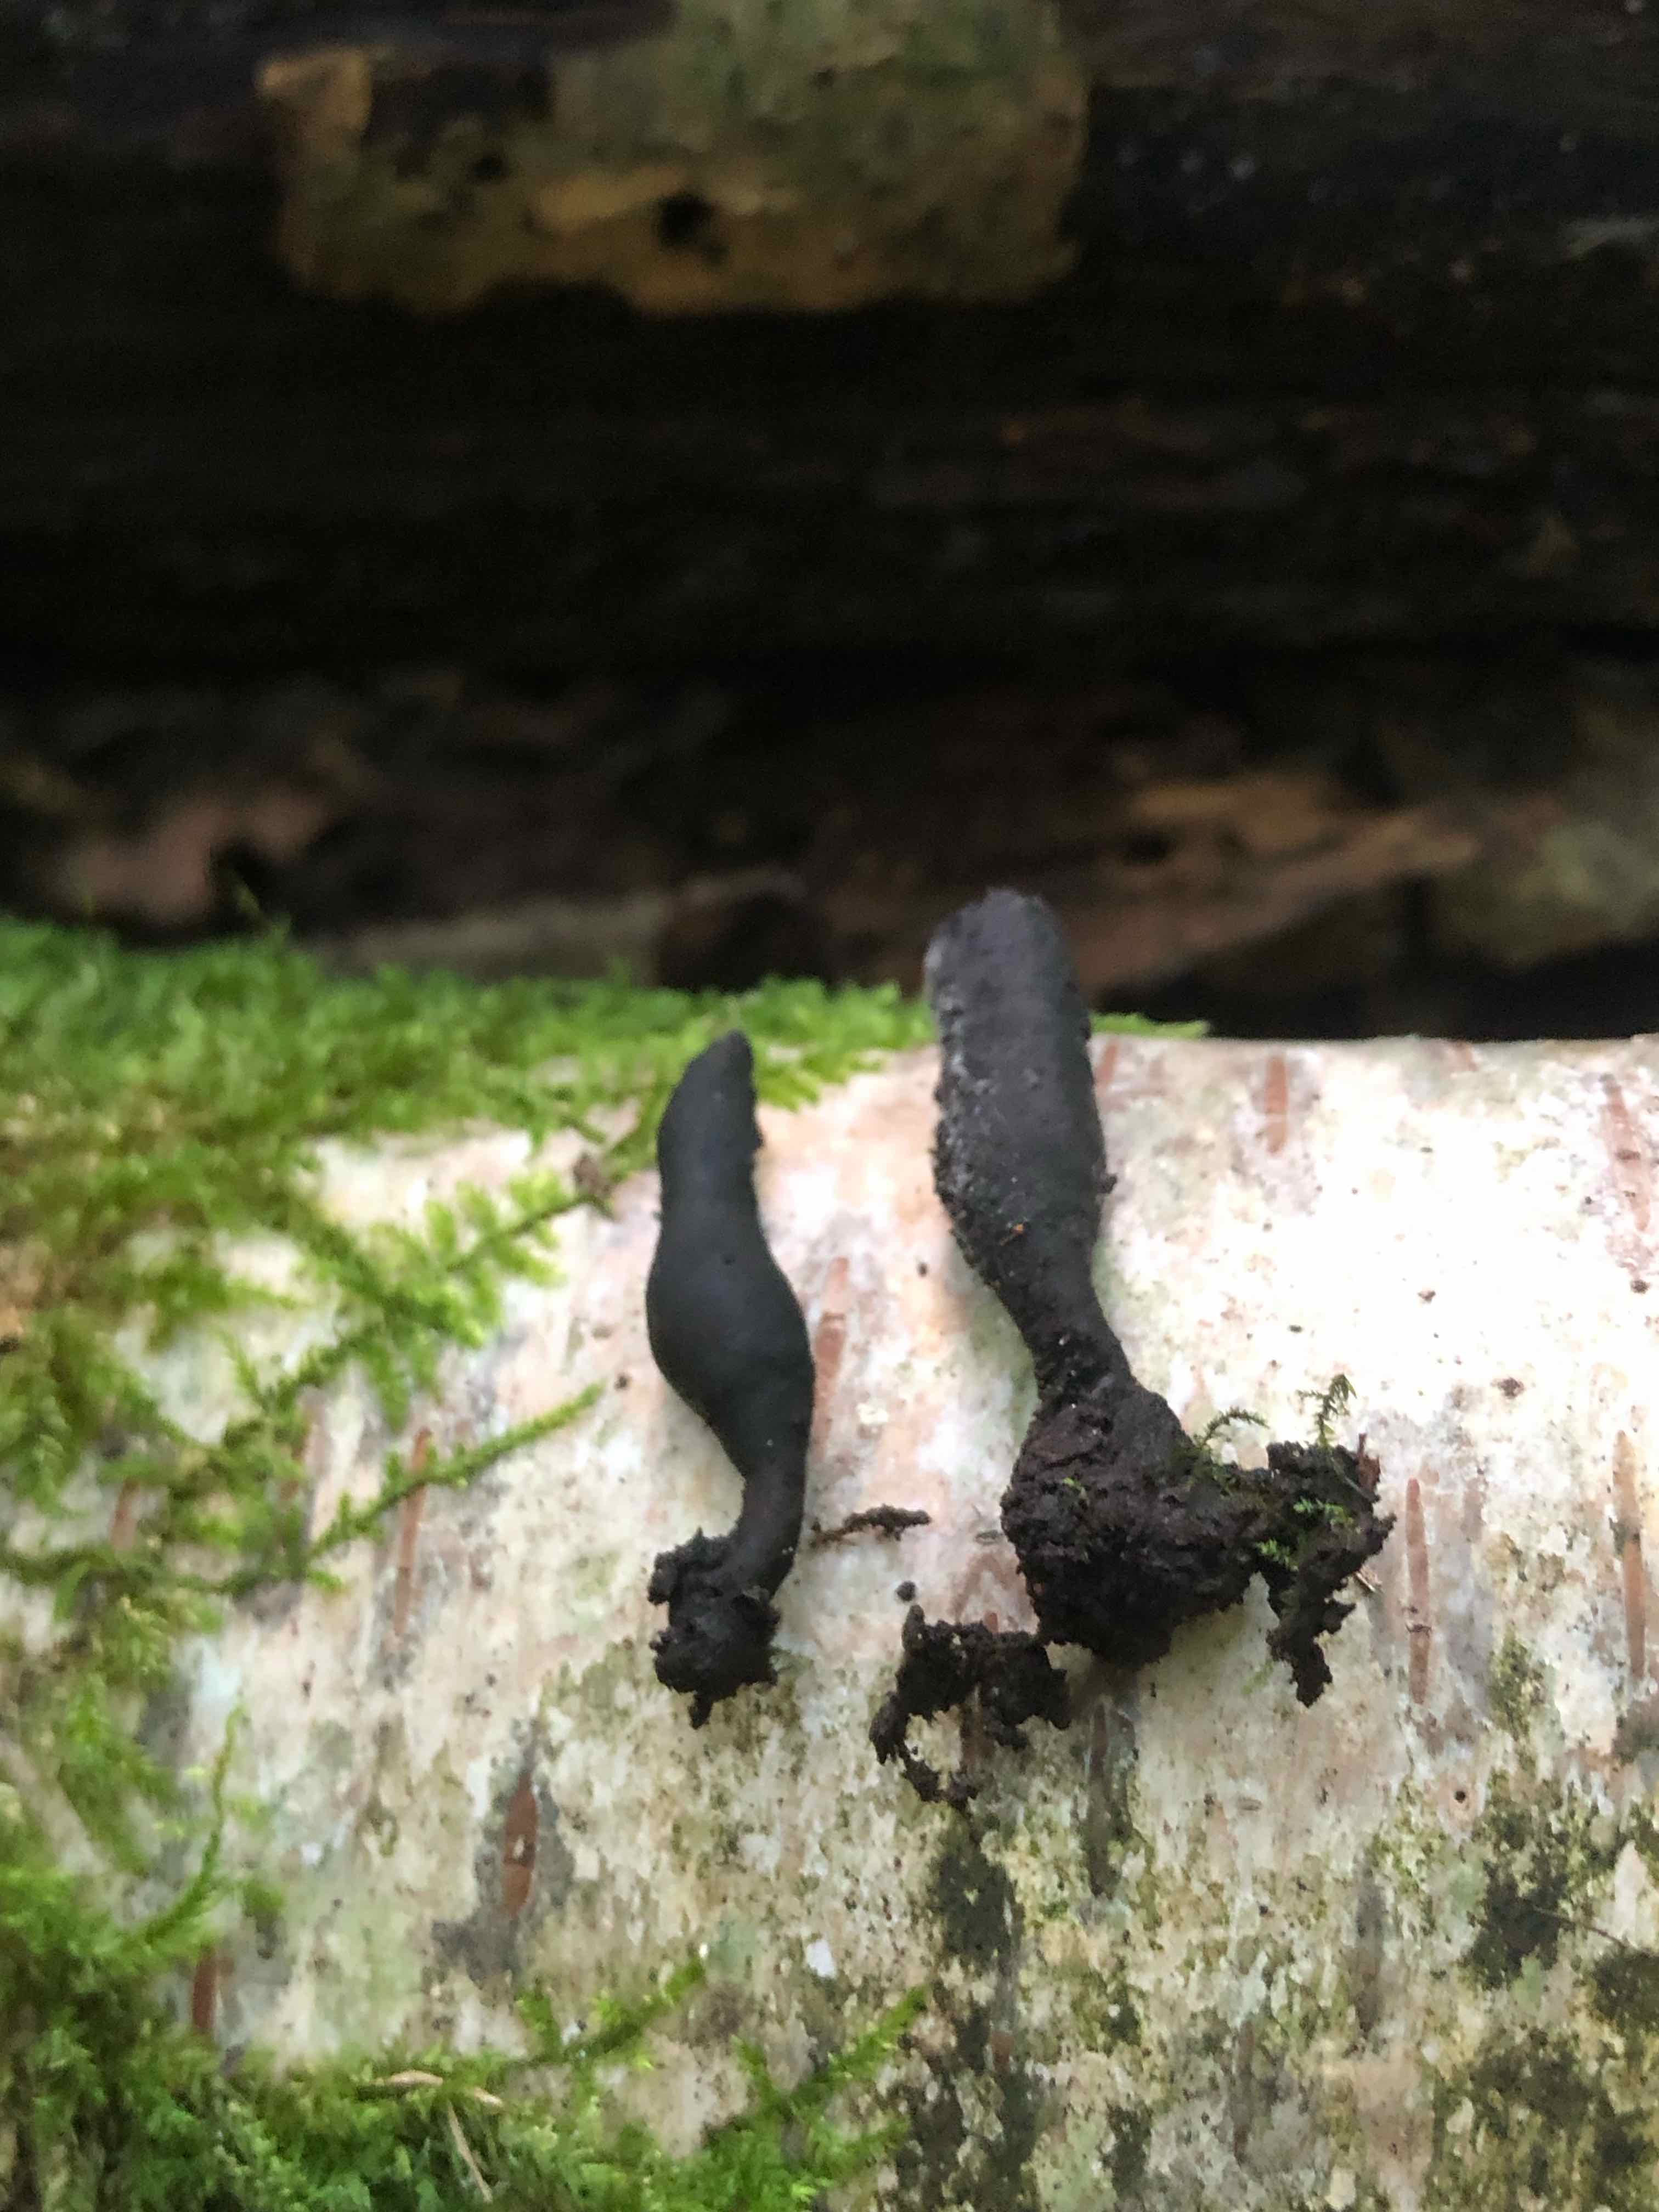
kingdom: Fungi
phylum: Ascomycota
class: Sordariomycetes
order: Xylariales
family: Xylariaceae
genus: Xylaria
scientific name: Xylaria longipes
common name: slank stødsvamp
